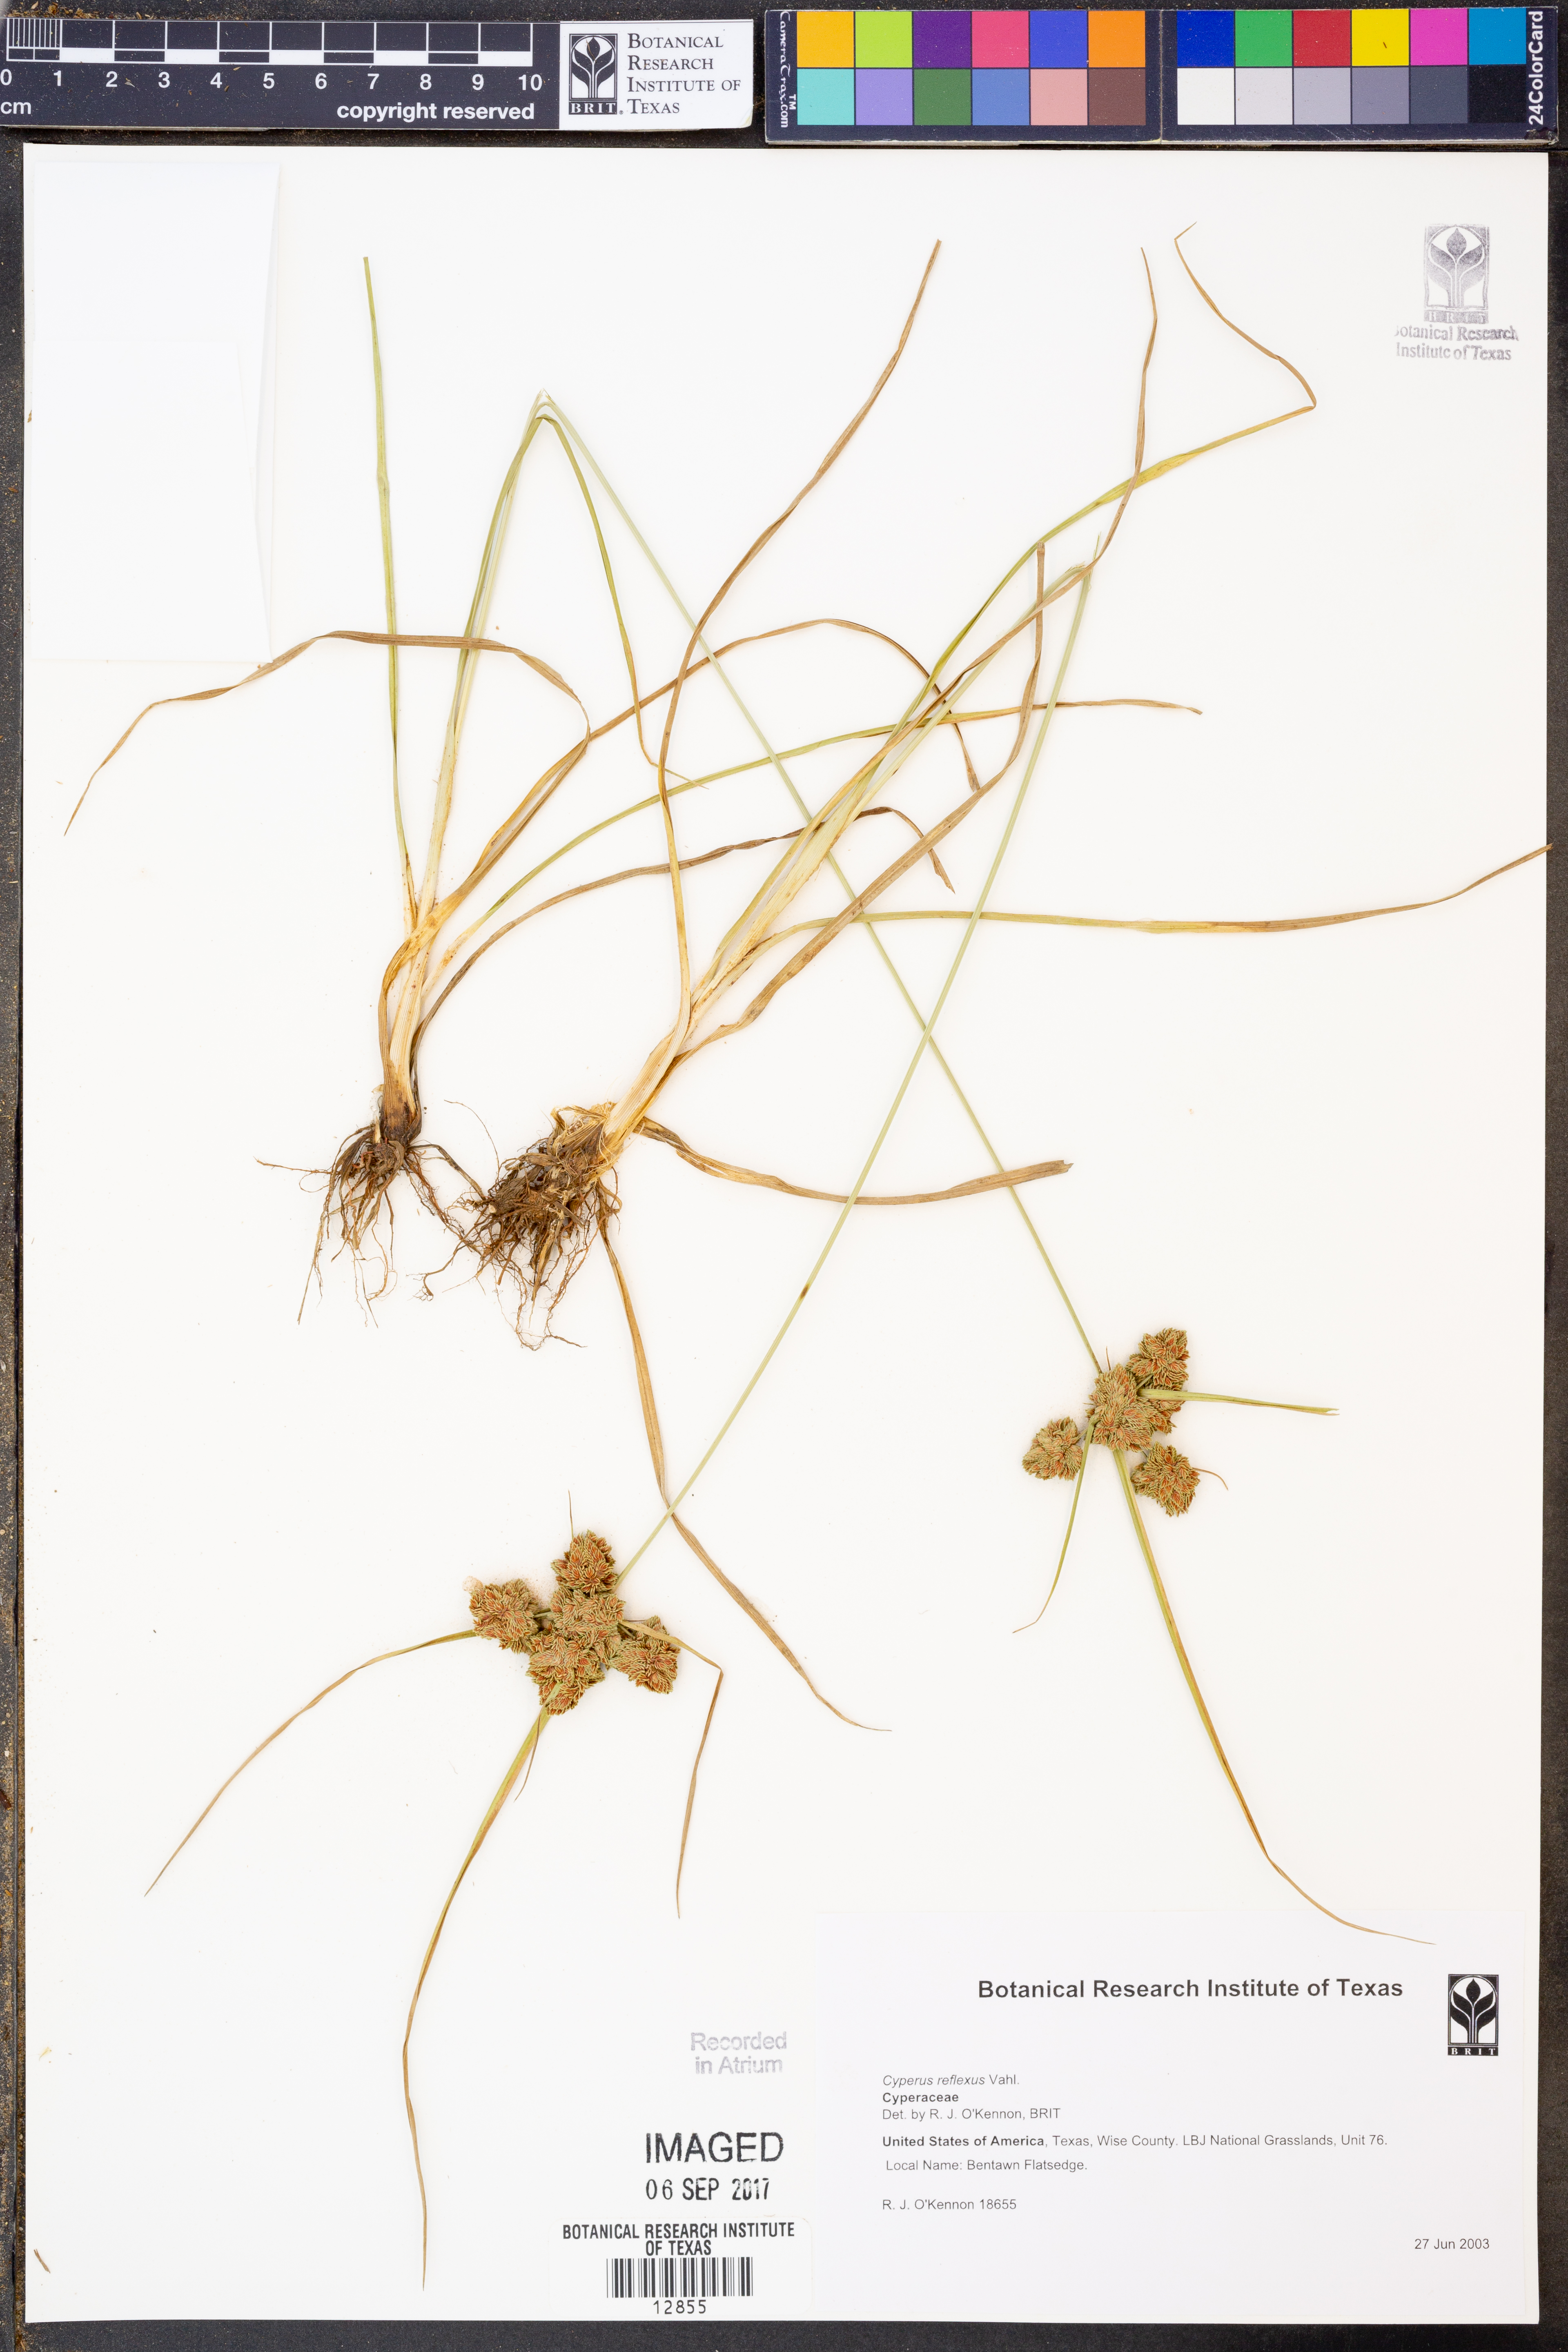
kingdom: Plantae
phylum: Tracheophyta
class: Liliopsida
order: Poales
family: Cyperaceae
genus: Cyperus
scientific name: Cyperus reflexus
